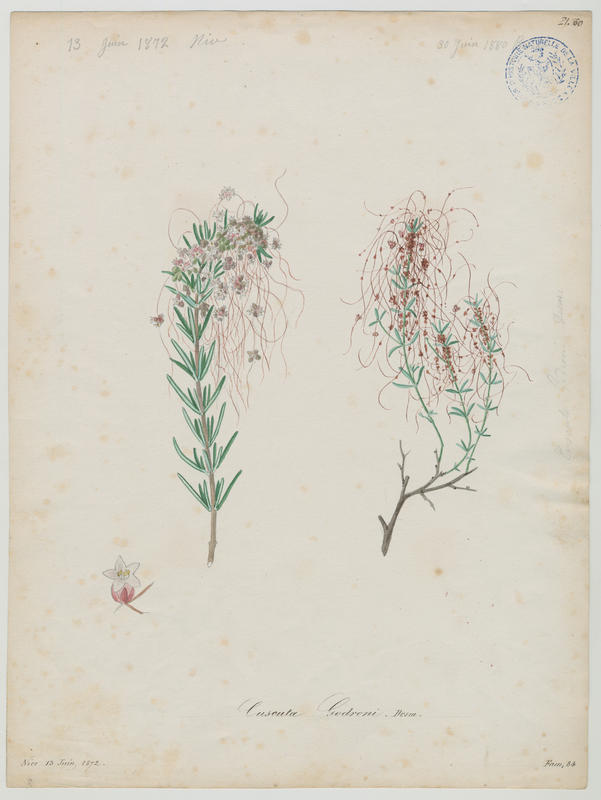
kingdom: Plantae
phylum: Tracheophyta
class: Magnoliopsida
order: Solanales
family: Convolvulaceae
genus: Cuscuta
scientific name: Cuscuta planiflora
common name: Small-seed alfalfa dodder
